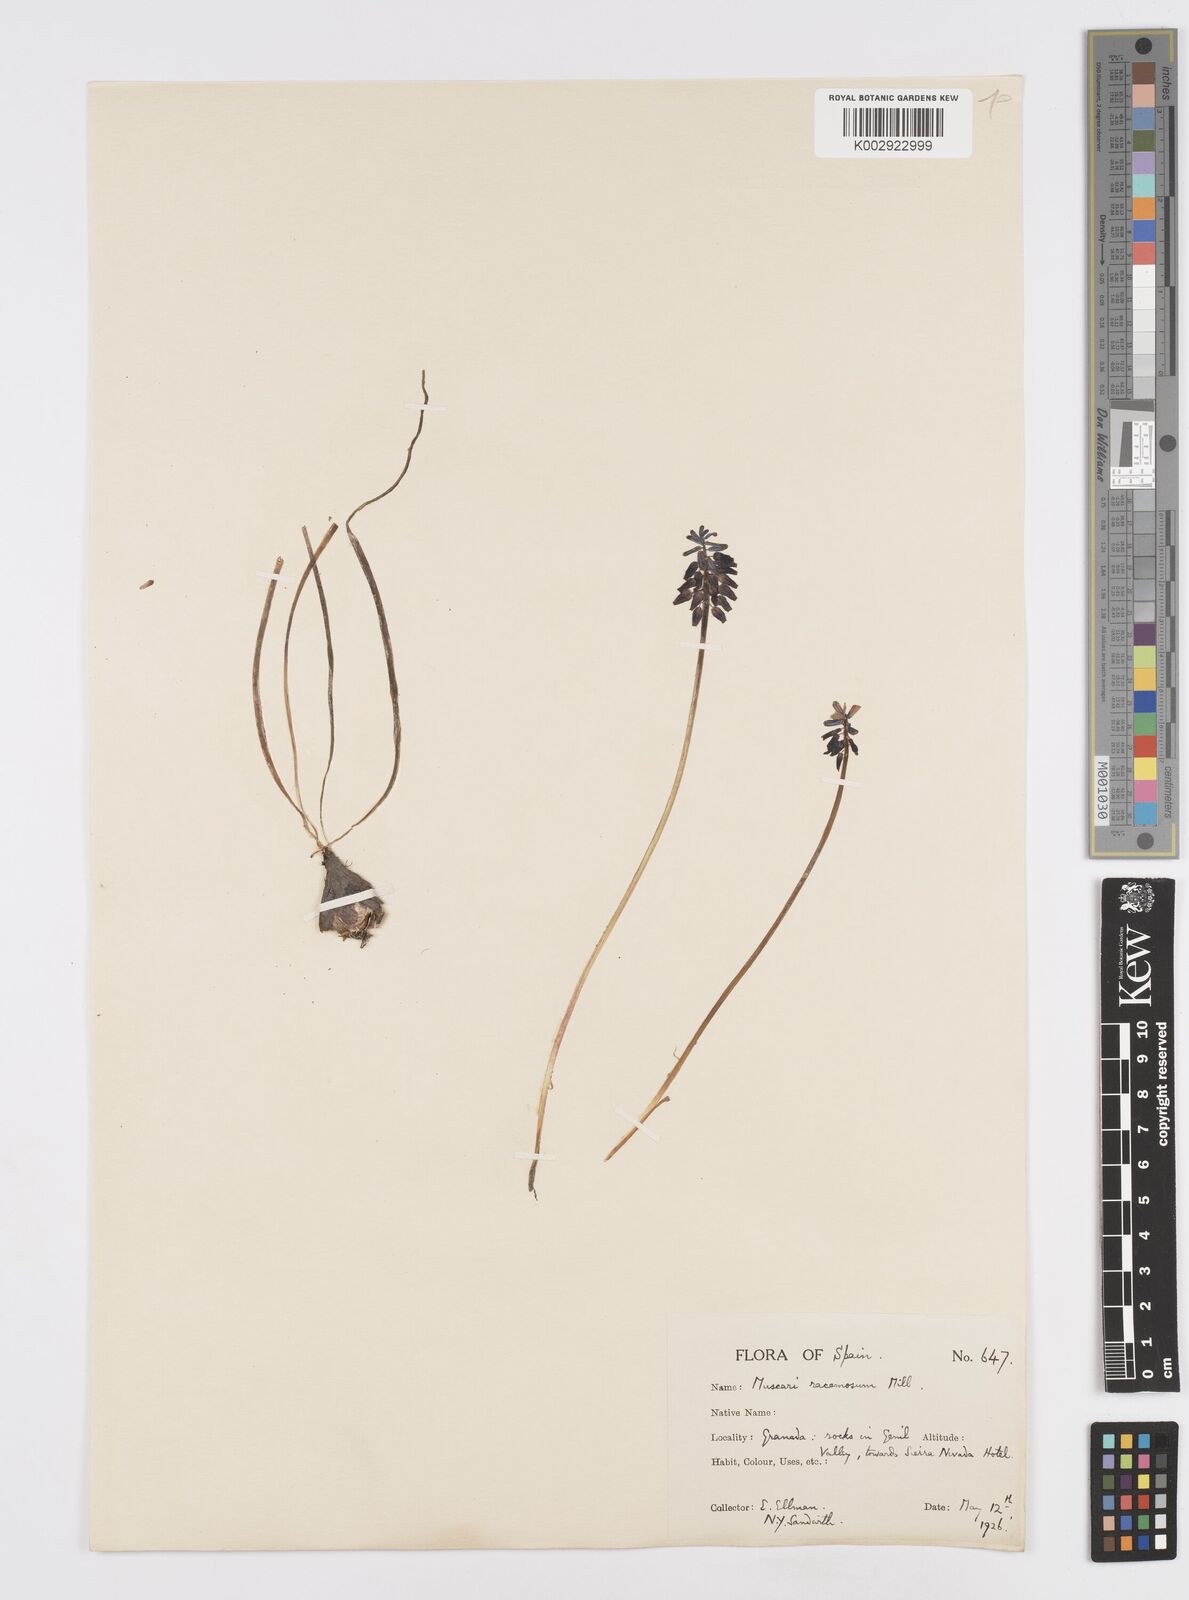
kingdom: Plantae
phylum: Tracheophyta
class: Liliopsida
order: Asparagales
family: Asparagaceae
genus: Muscarimia
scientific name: Muscarimia muscari
